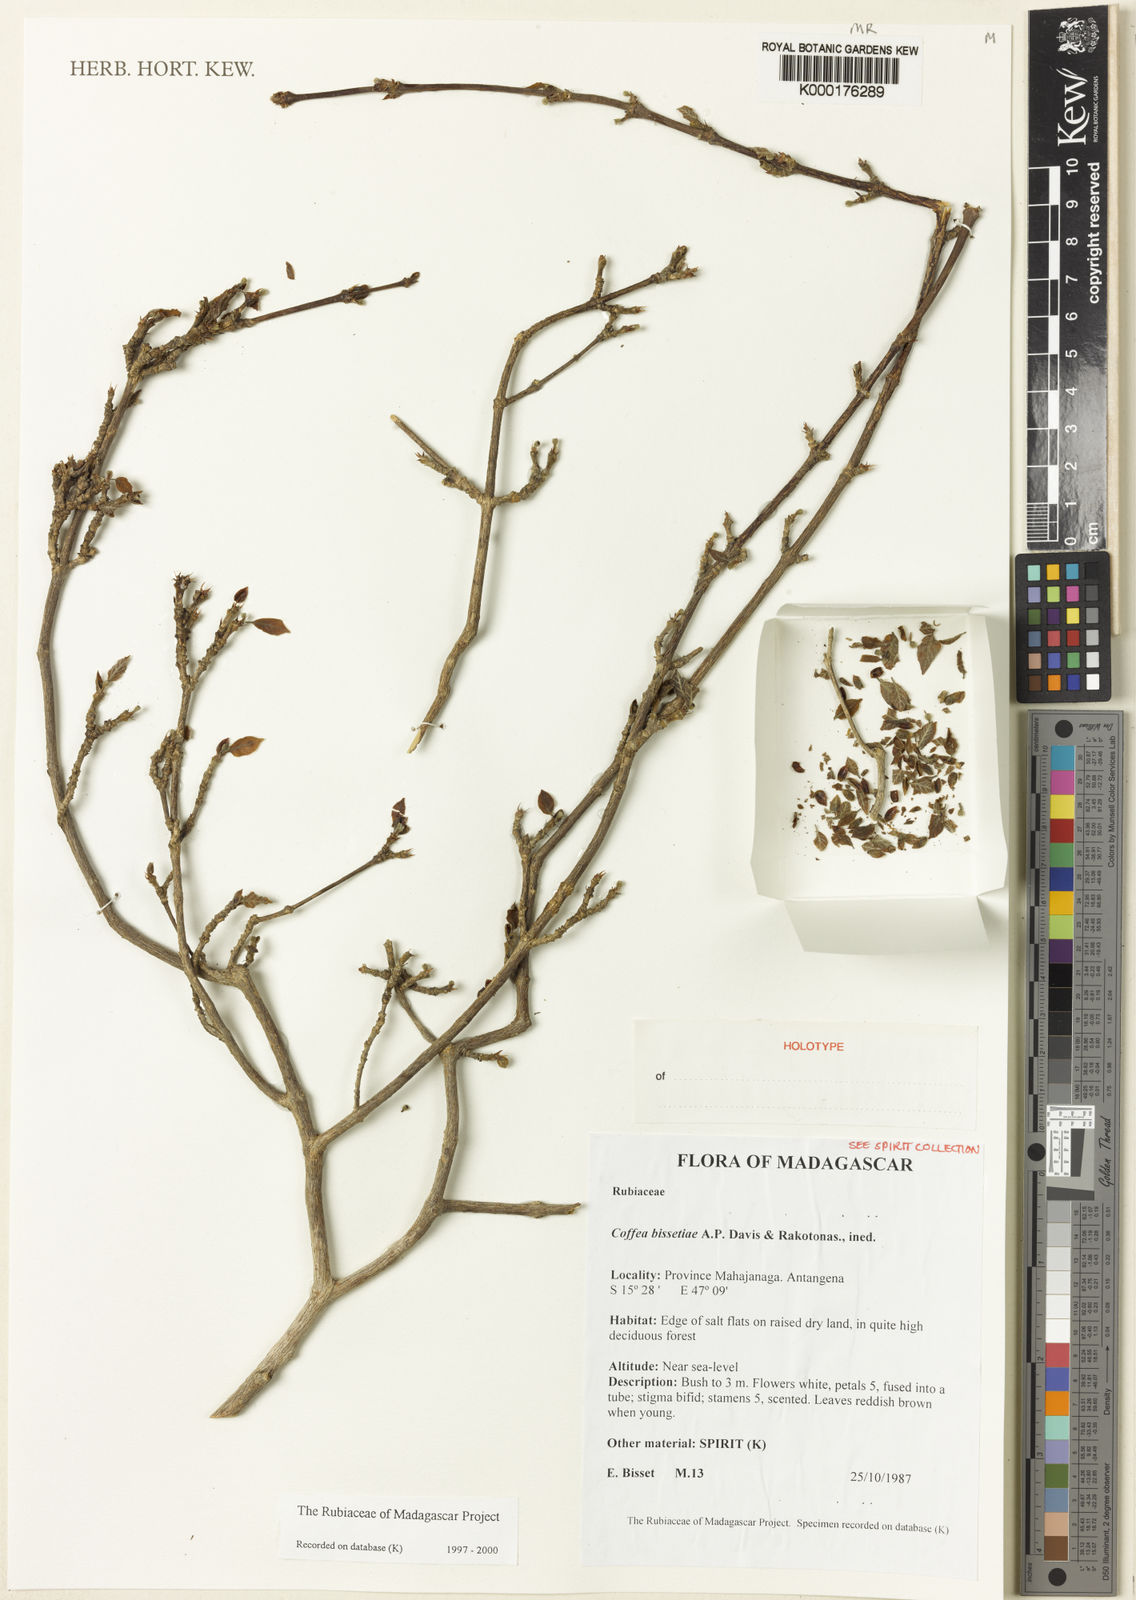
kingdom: Plantae
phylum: Tracheophyta
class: Magnoliopsida
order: Gentianales
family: Rubiaceae
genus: Coffea
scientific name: Coffea bissetiae
